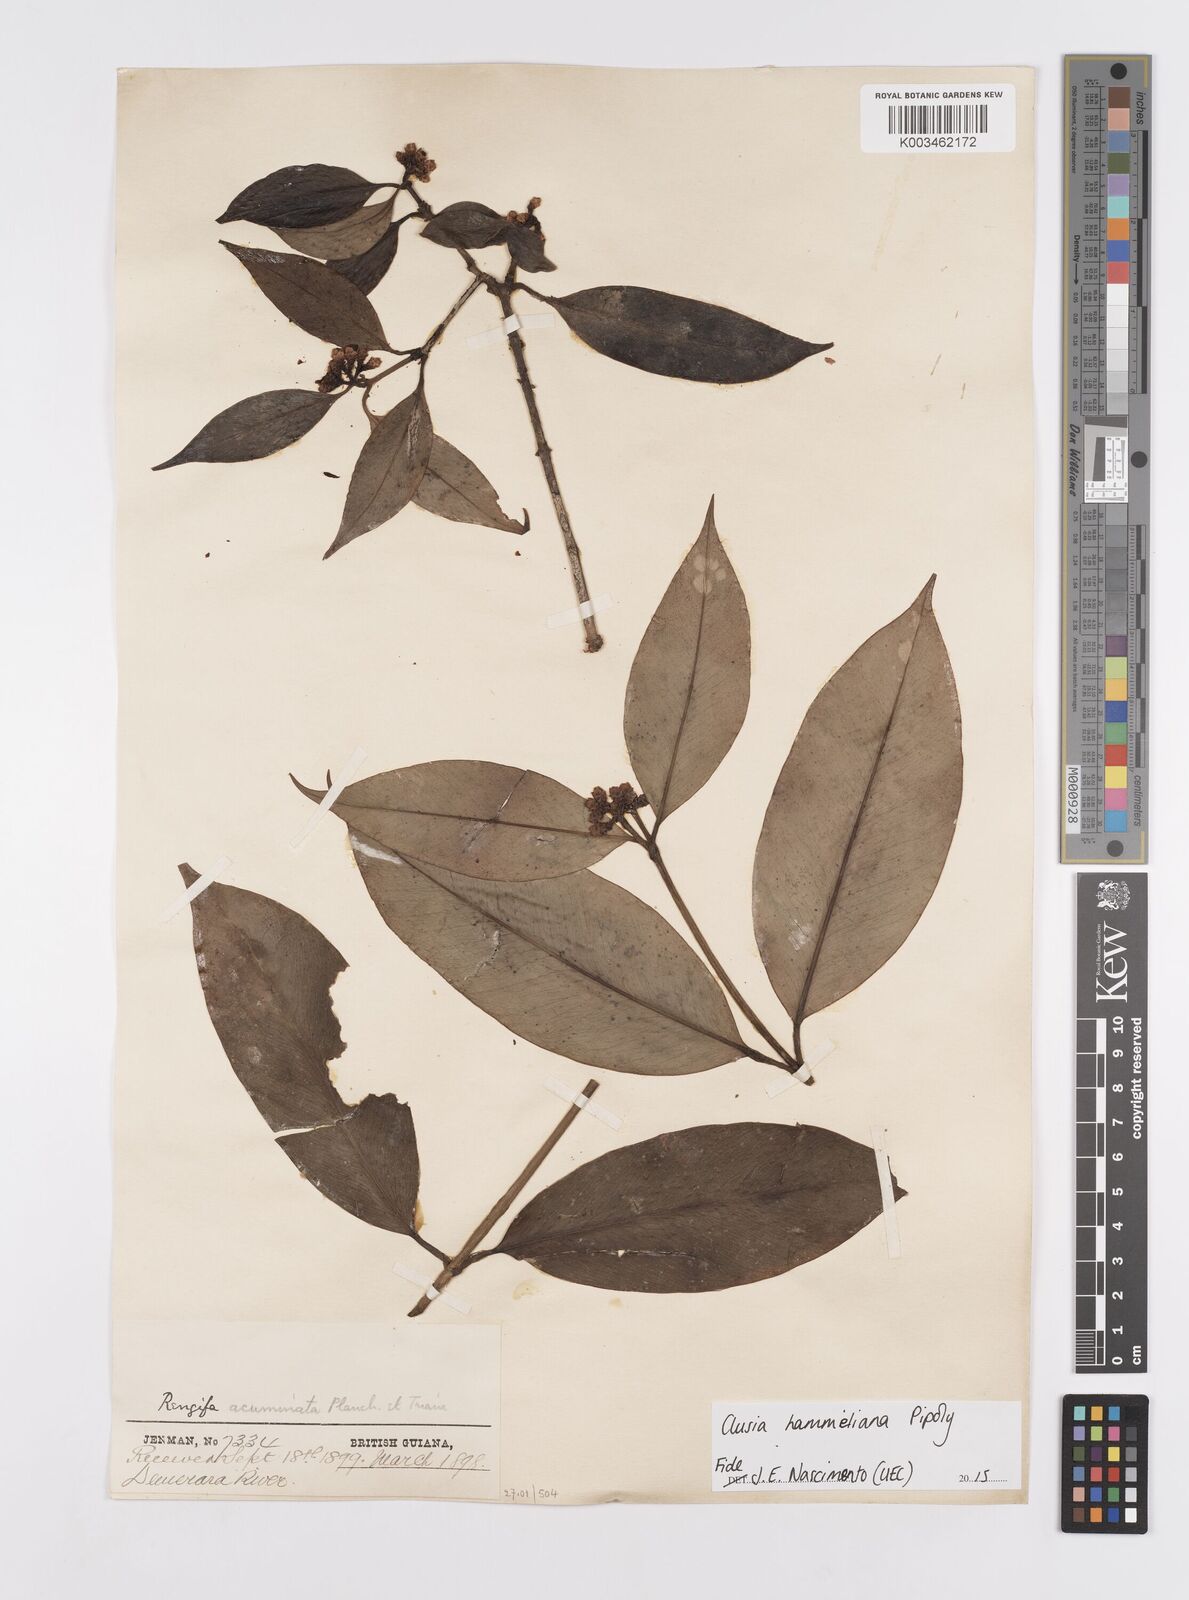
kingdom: Plantae
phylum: Tracheophyta
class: Magnoliopsida
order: Malpighiales
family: Clusiaceae
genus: Clusia
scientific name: Clusia hammeliana
